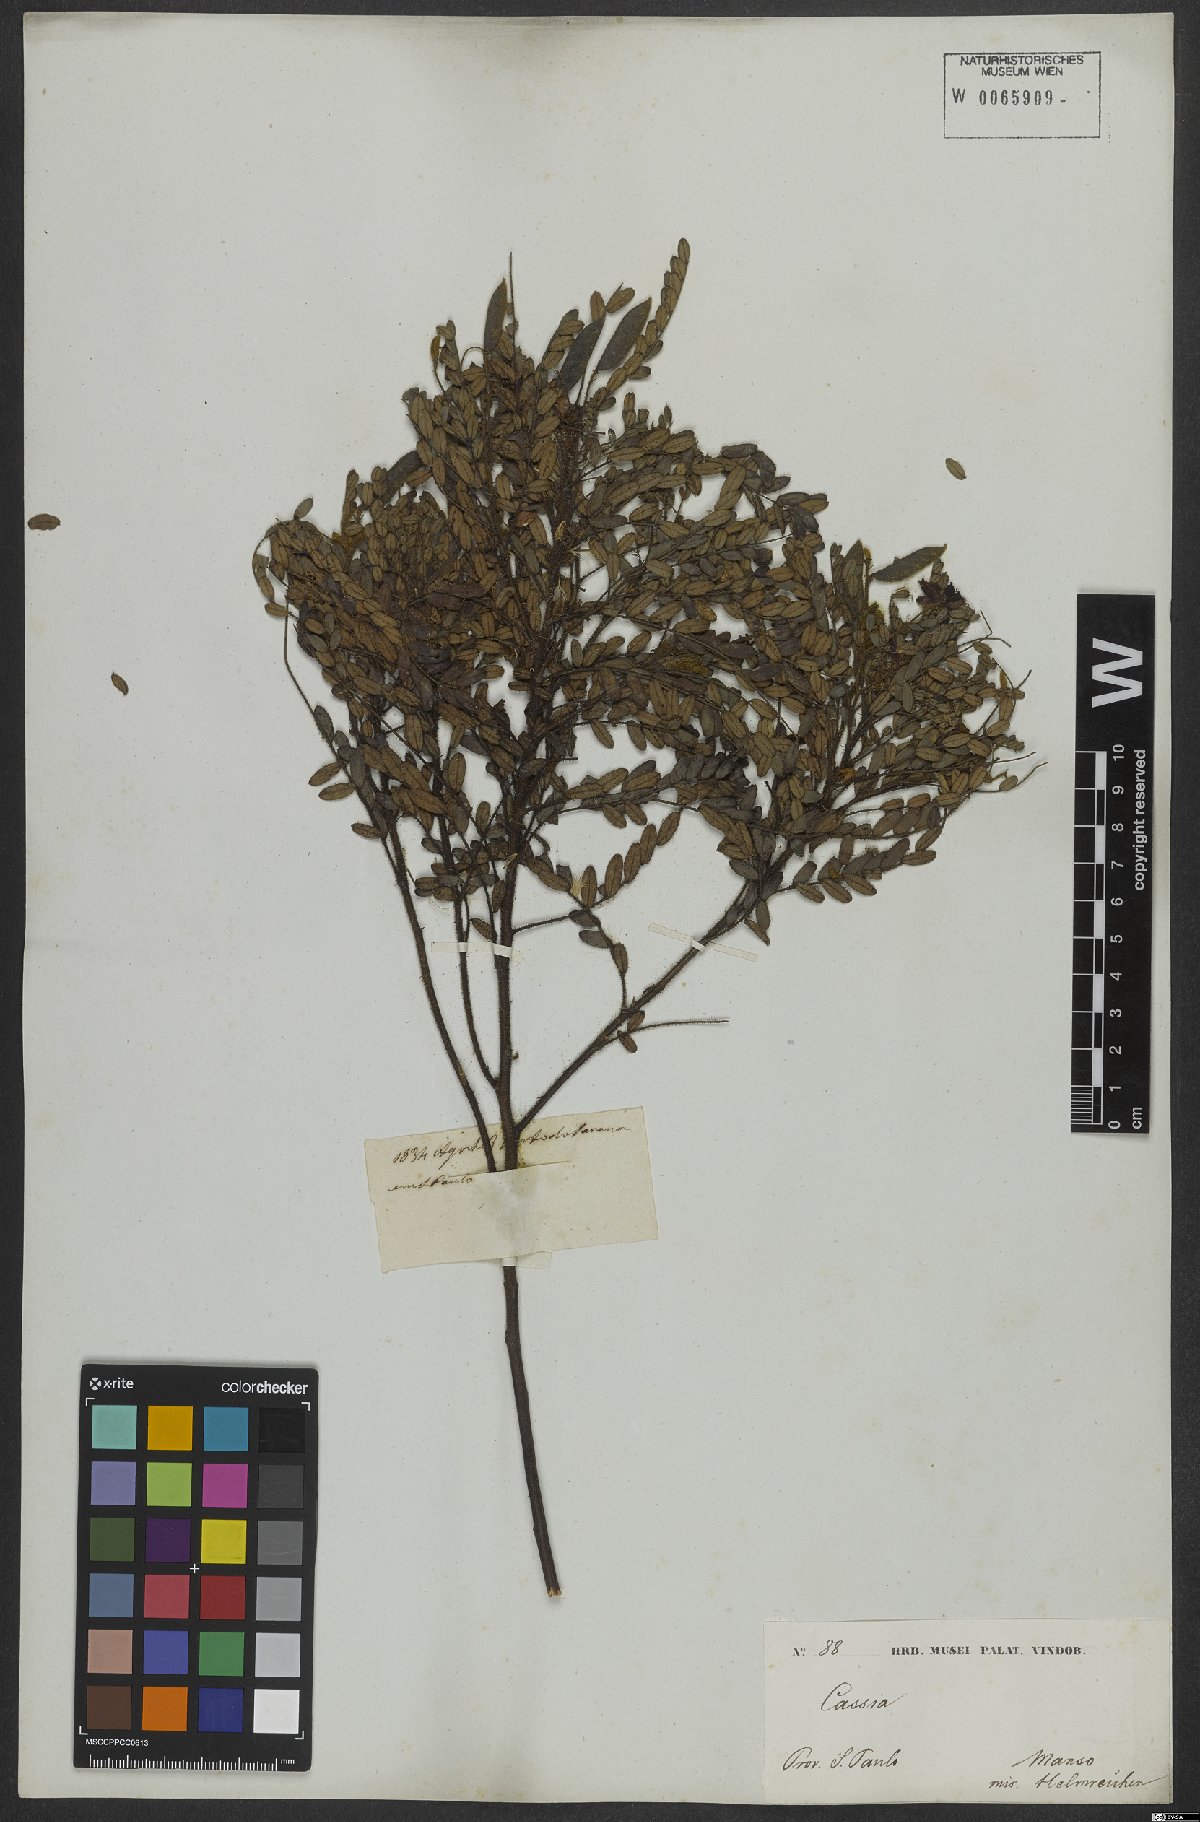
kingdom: Plantae
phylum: Tracheophyta
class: Magnoliopsida
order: Fabales
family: Fabaceae
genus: Chamaecrista
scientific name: Chamaecrista cathartica
